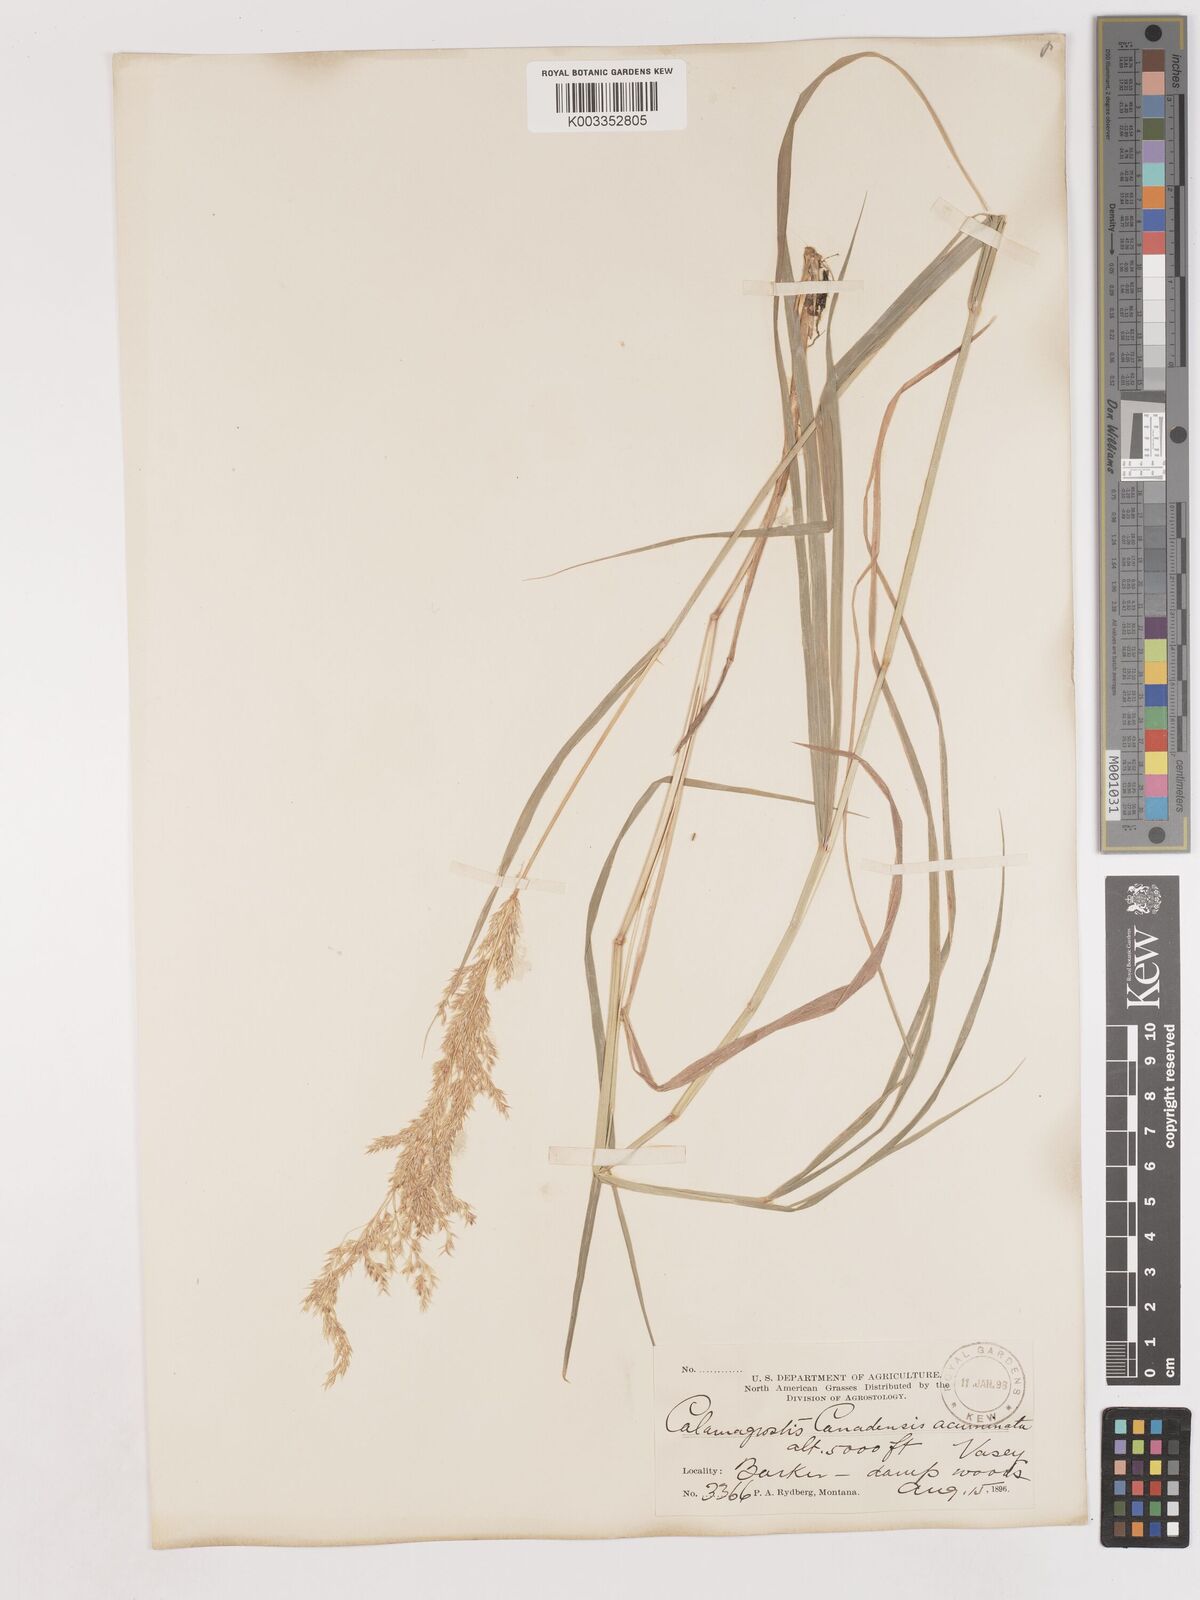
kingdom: Plantae
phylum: Tracheophyta
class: Liliopsida
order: Poales
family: Poaceae
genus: Calamagrostis
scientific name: Calamagrostis canadensis
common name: Canada bluejoint
